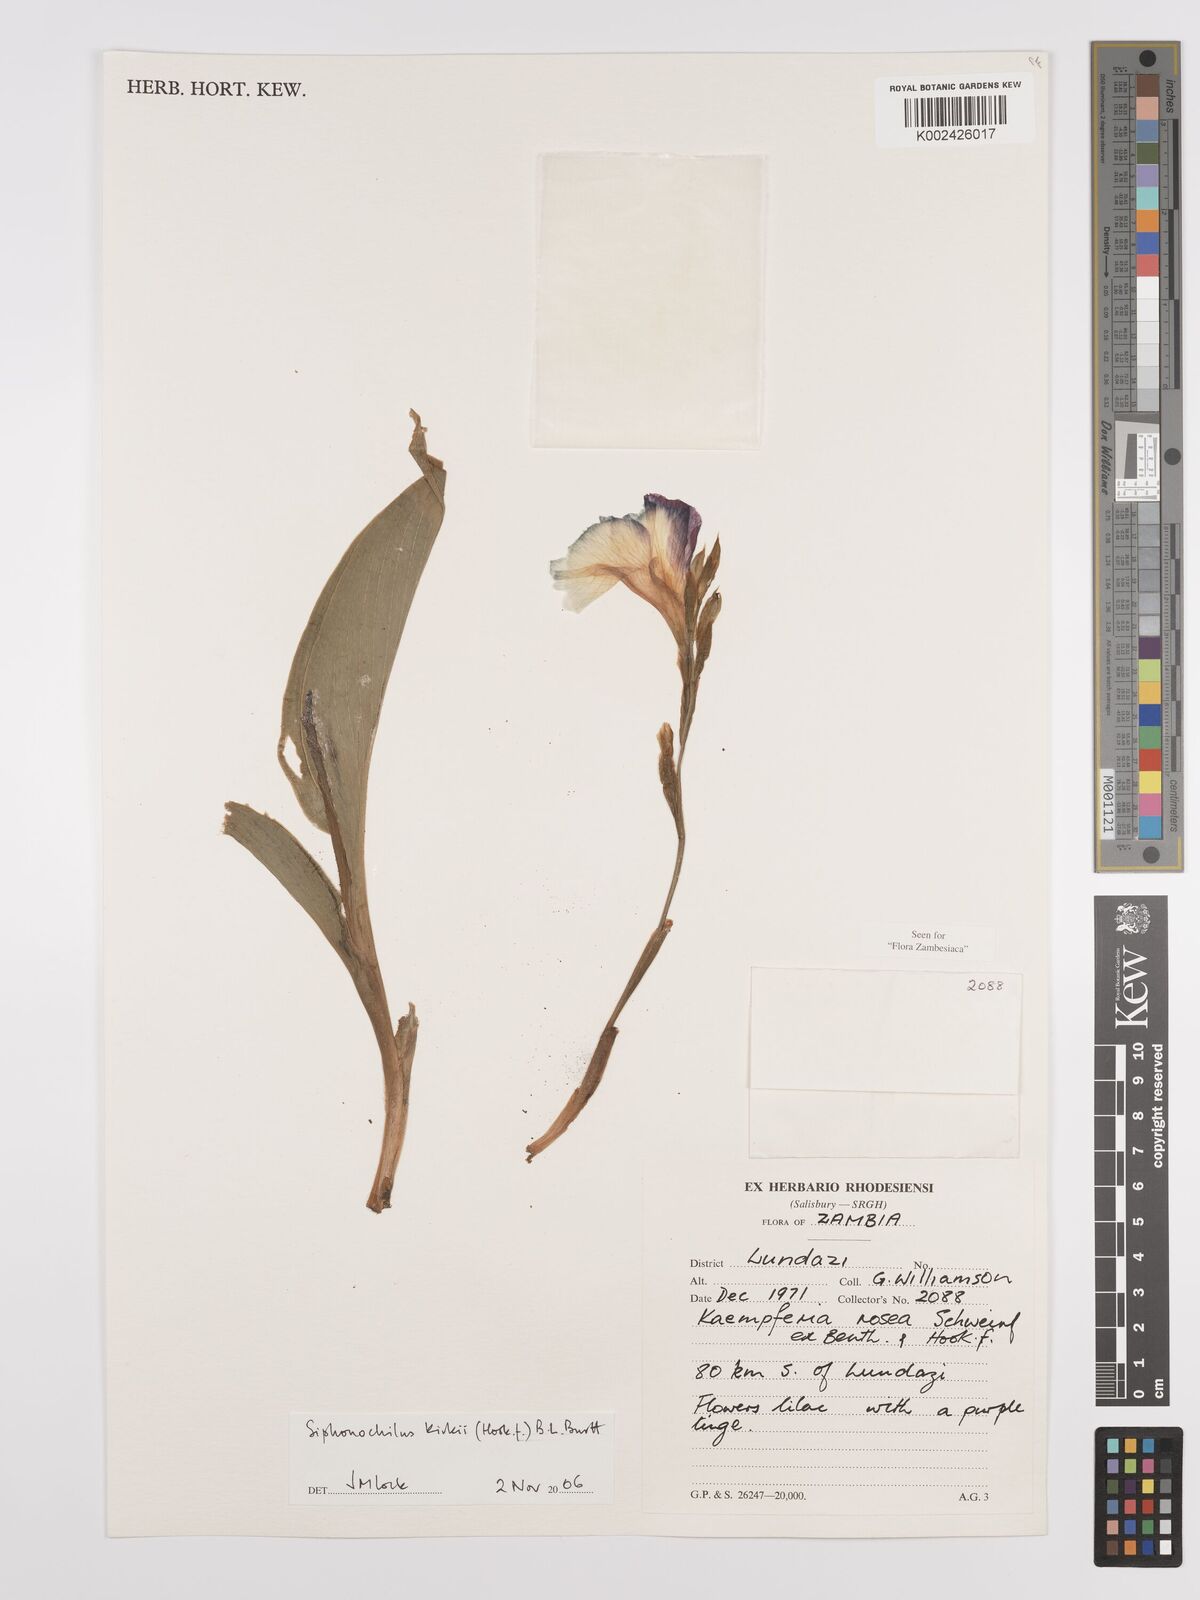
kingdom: Plantae
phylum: Tracheophyta
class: Liliopsida
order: Zingiberales
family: Zingiberaceae
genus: Siphonochilus
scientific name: Siphonochilus kirkii
